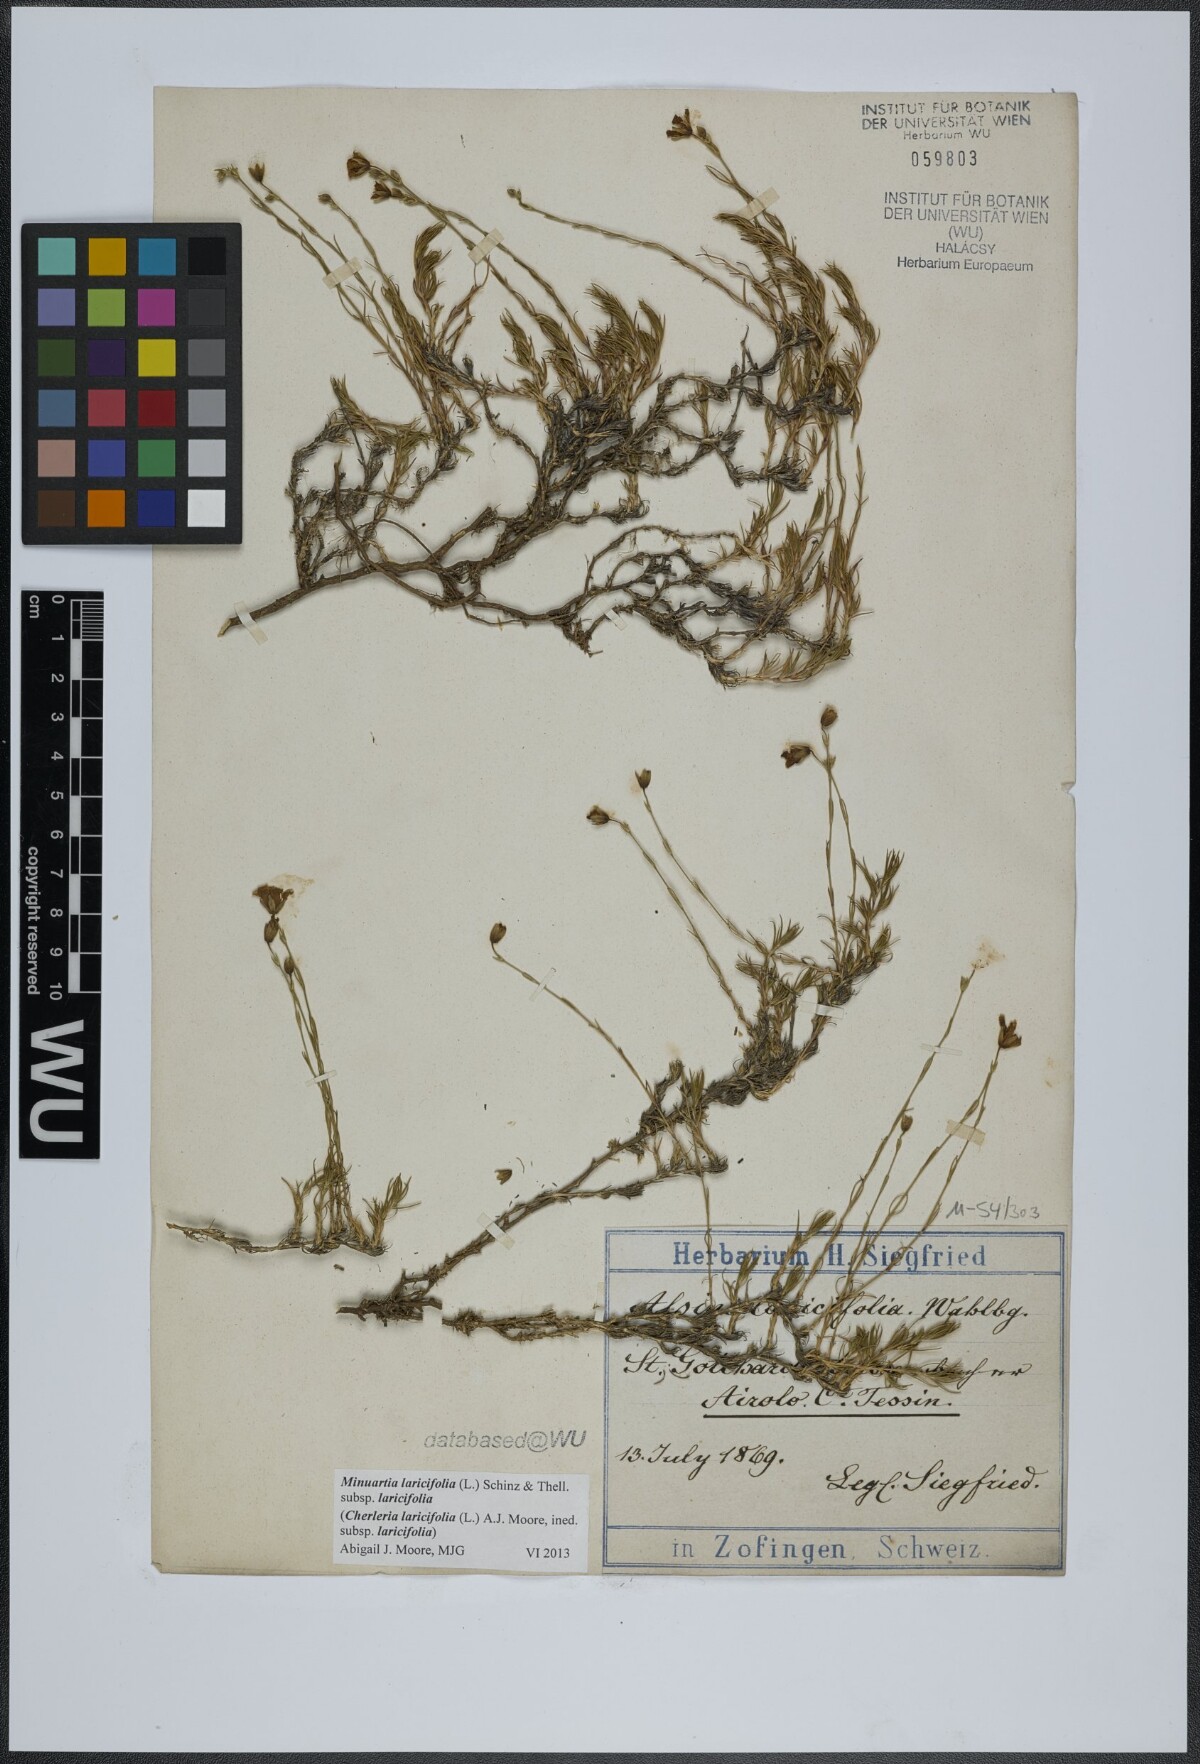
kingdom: Plantae
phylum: Tracheophyta
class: Magnoliopsida
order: Caryophyllales
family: Caryophyllaceae
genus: Cherleria
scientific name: Cherleria laricifolia
